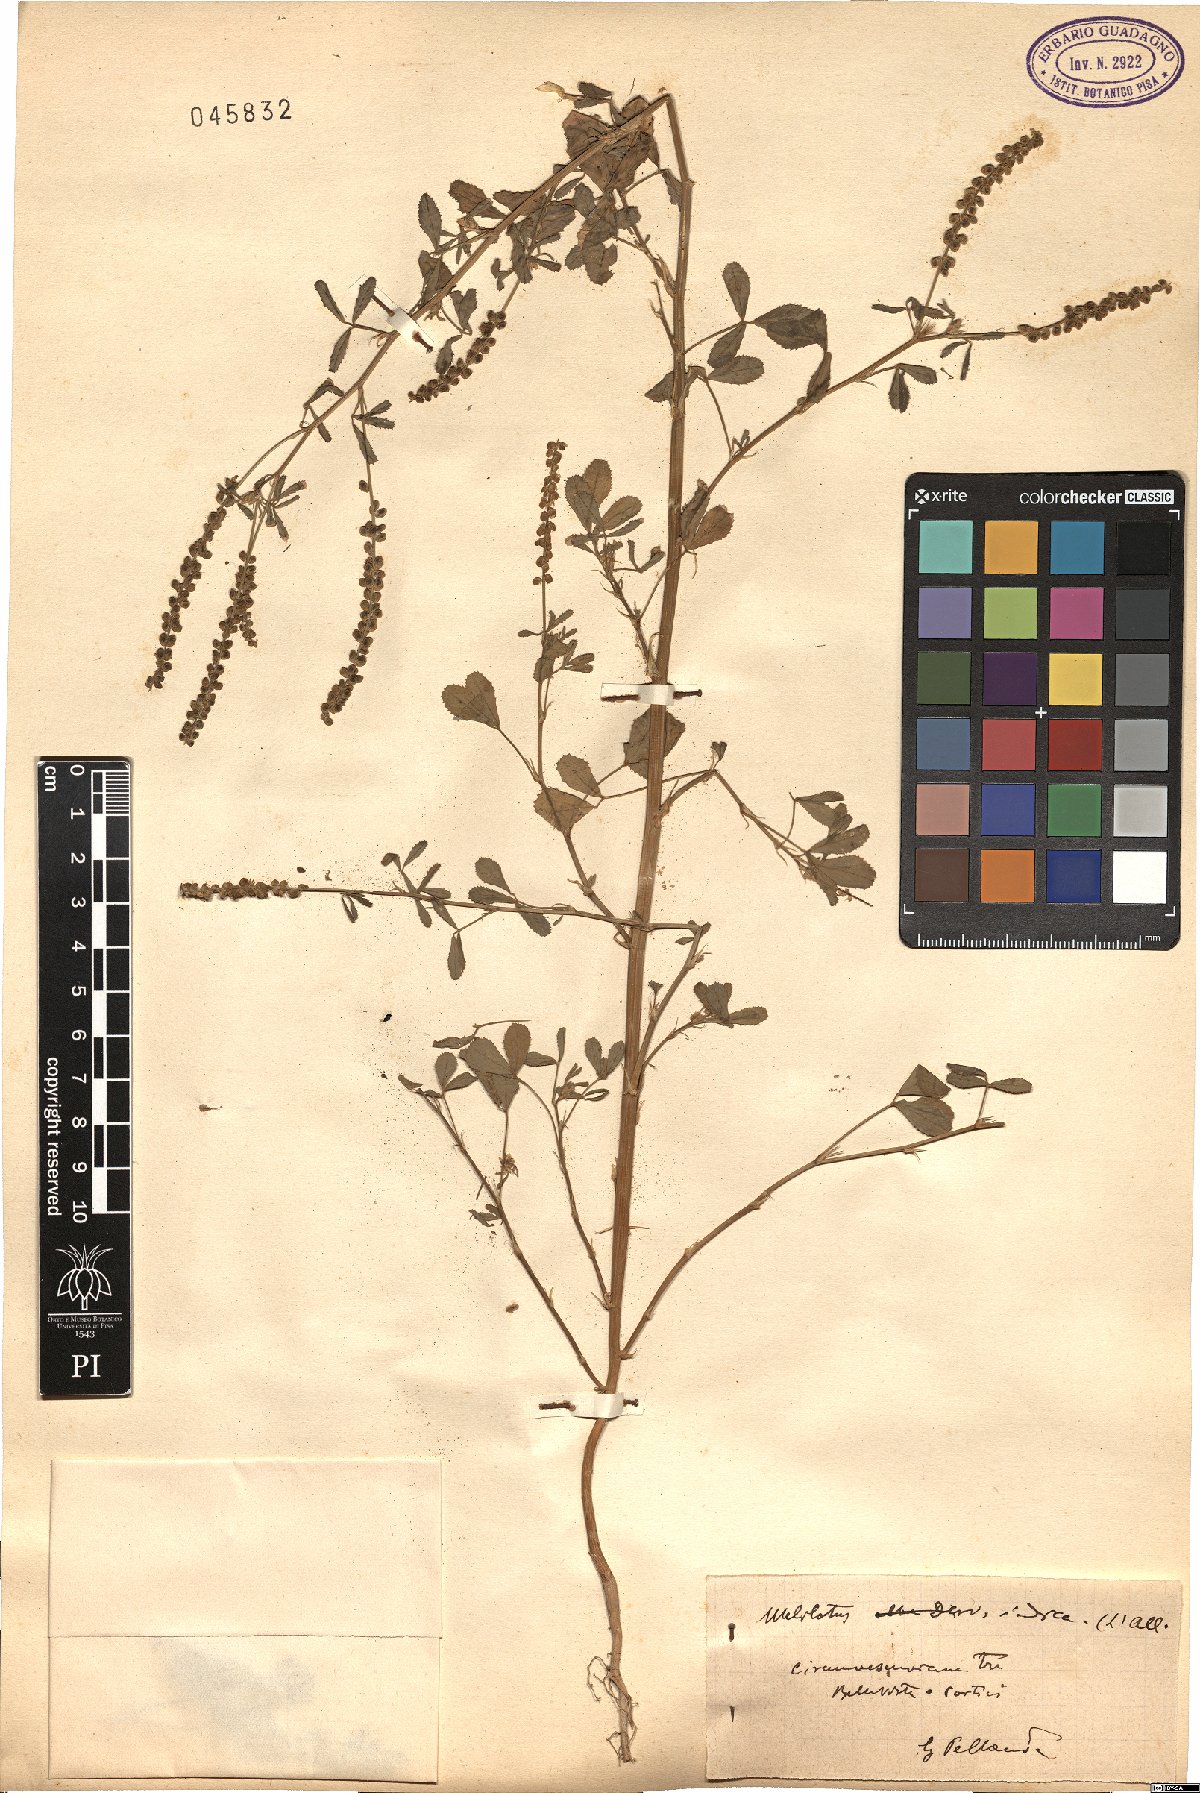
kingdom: Plantae
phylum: Tracheophyta
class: Magnoliopsida
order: Fabales
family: Fabaceae
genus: Melilotus
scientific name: Melilotus indicus
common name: Small melilot
